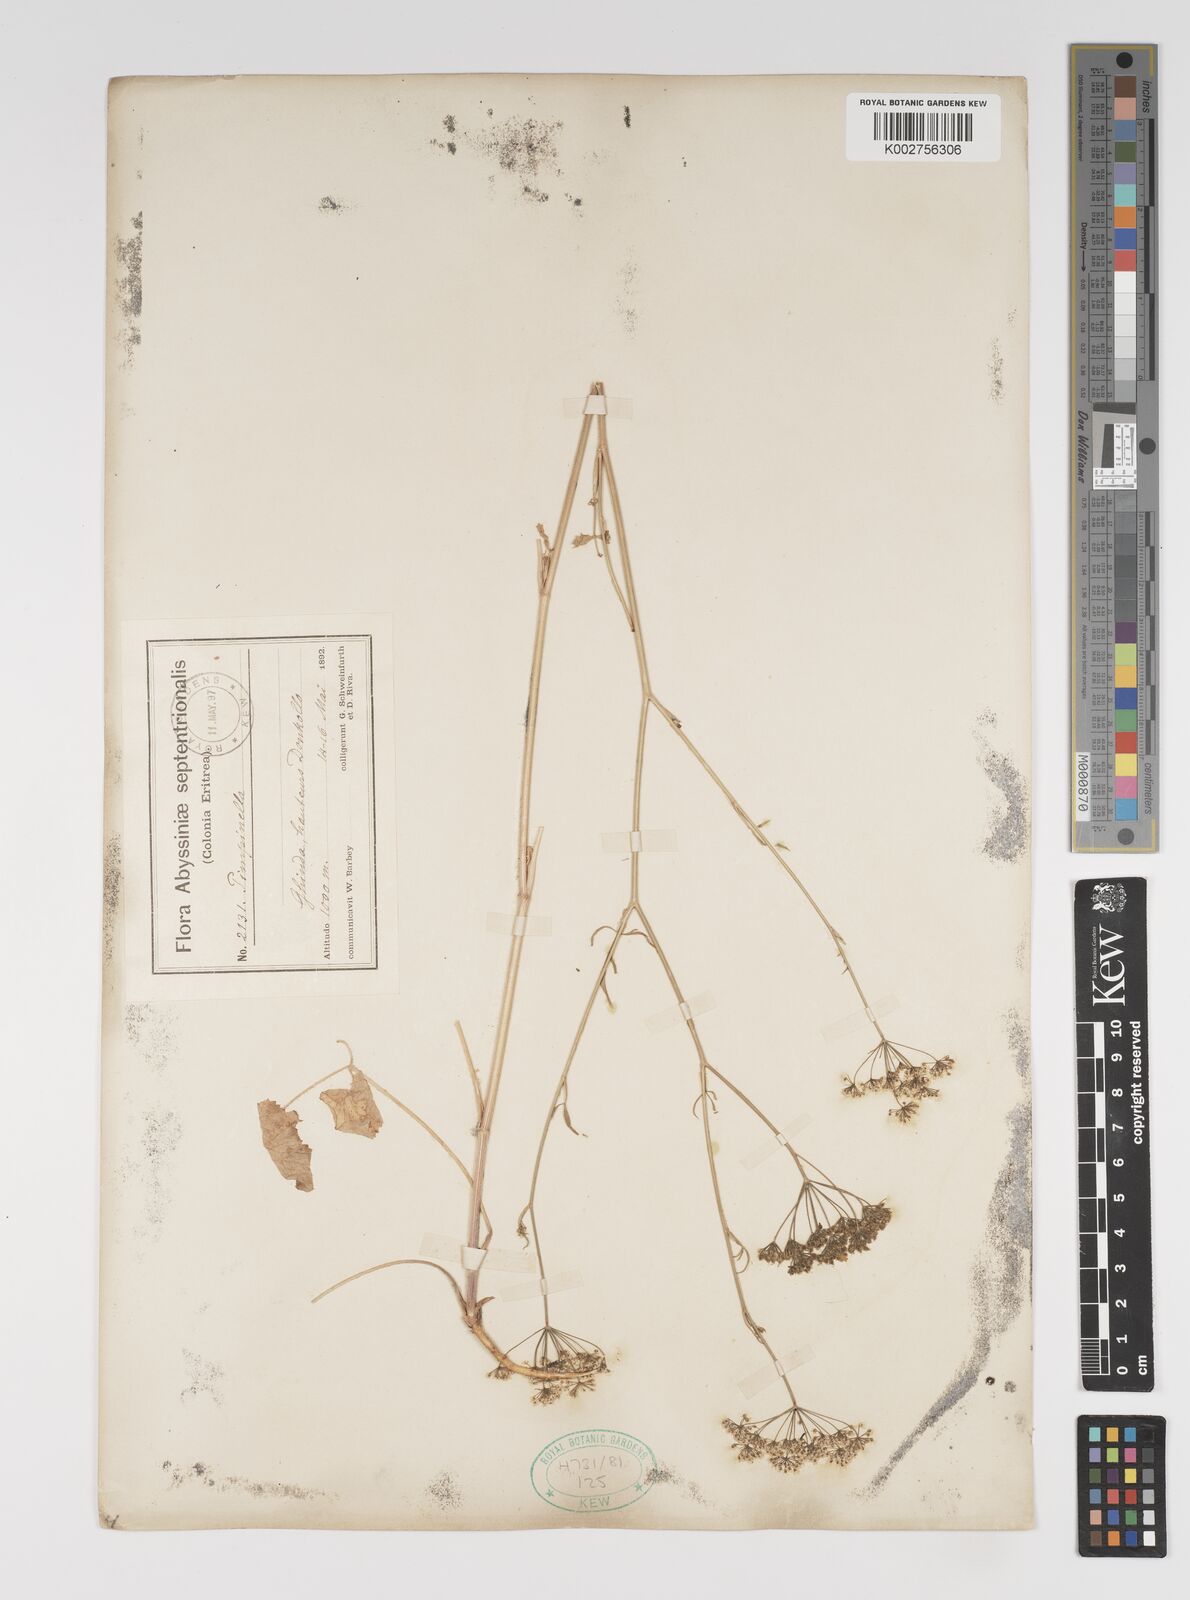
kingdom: Plantae
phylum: Tracheophyta
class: Magnoliopsida
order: Apiales
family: Apiaceae
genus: Pimpinella
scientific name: Pimpinella peregrina
